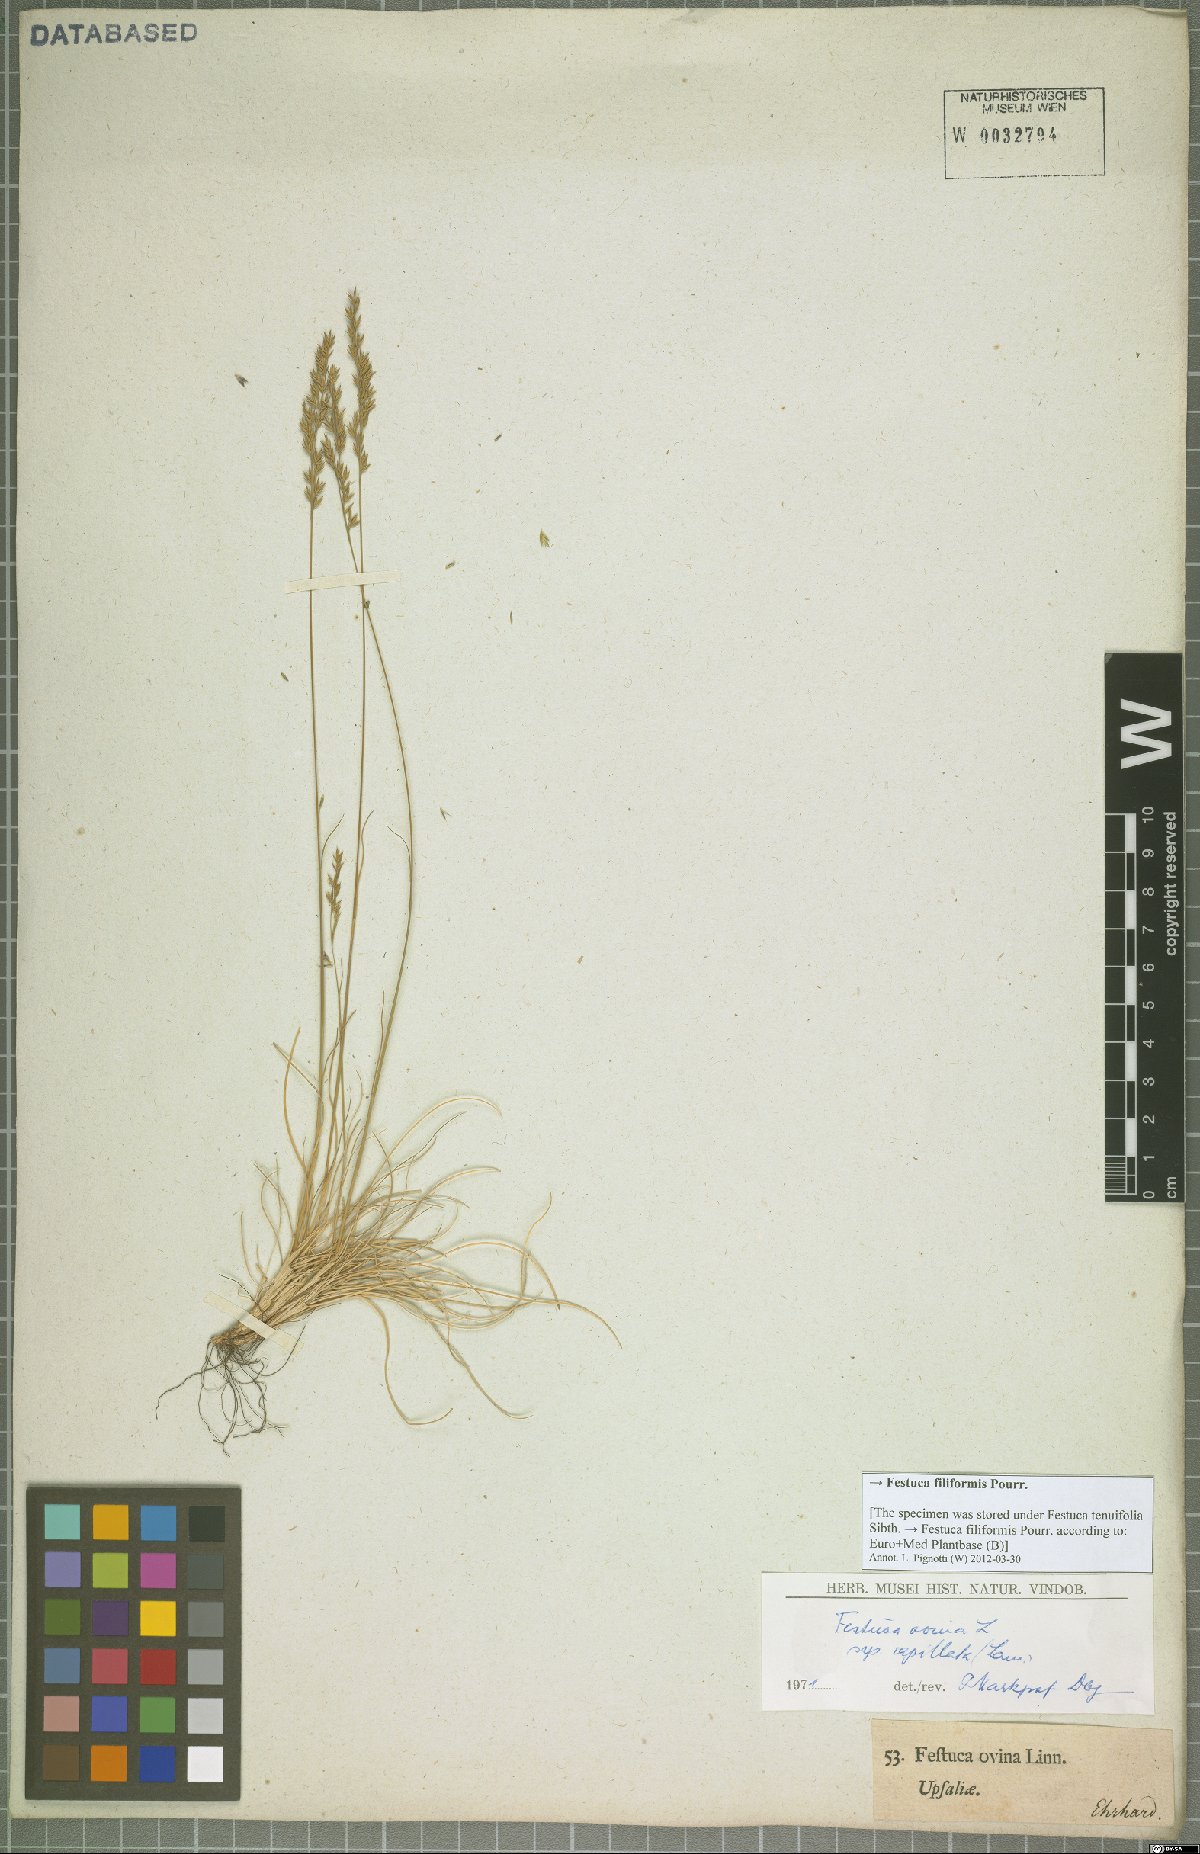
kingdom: Plantae
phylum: Tracheophyta
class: Liliopsida
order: Poales
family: Poaceae
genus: Festuca
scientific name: Festuca filiformis
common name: Fine-leaved sheep's-fescue
